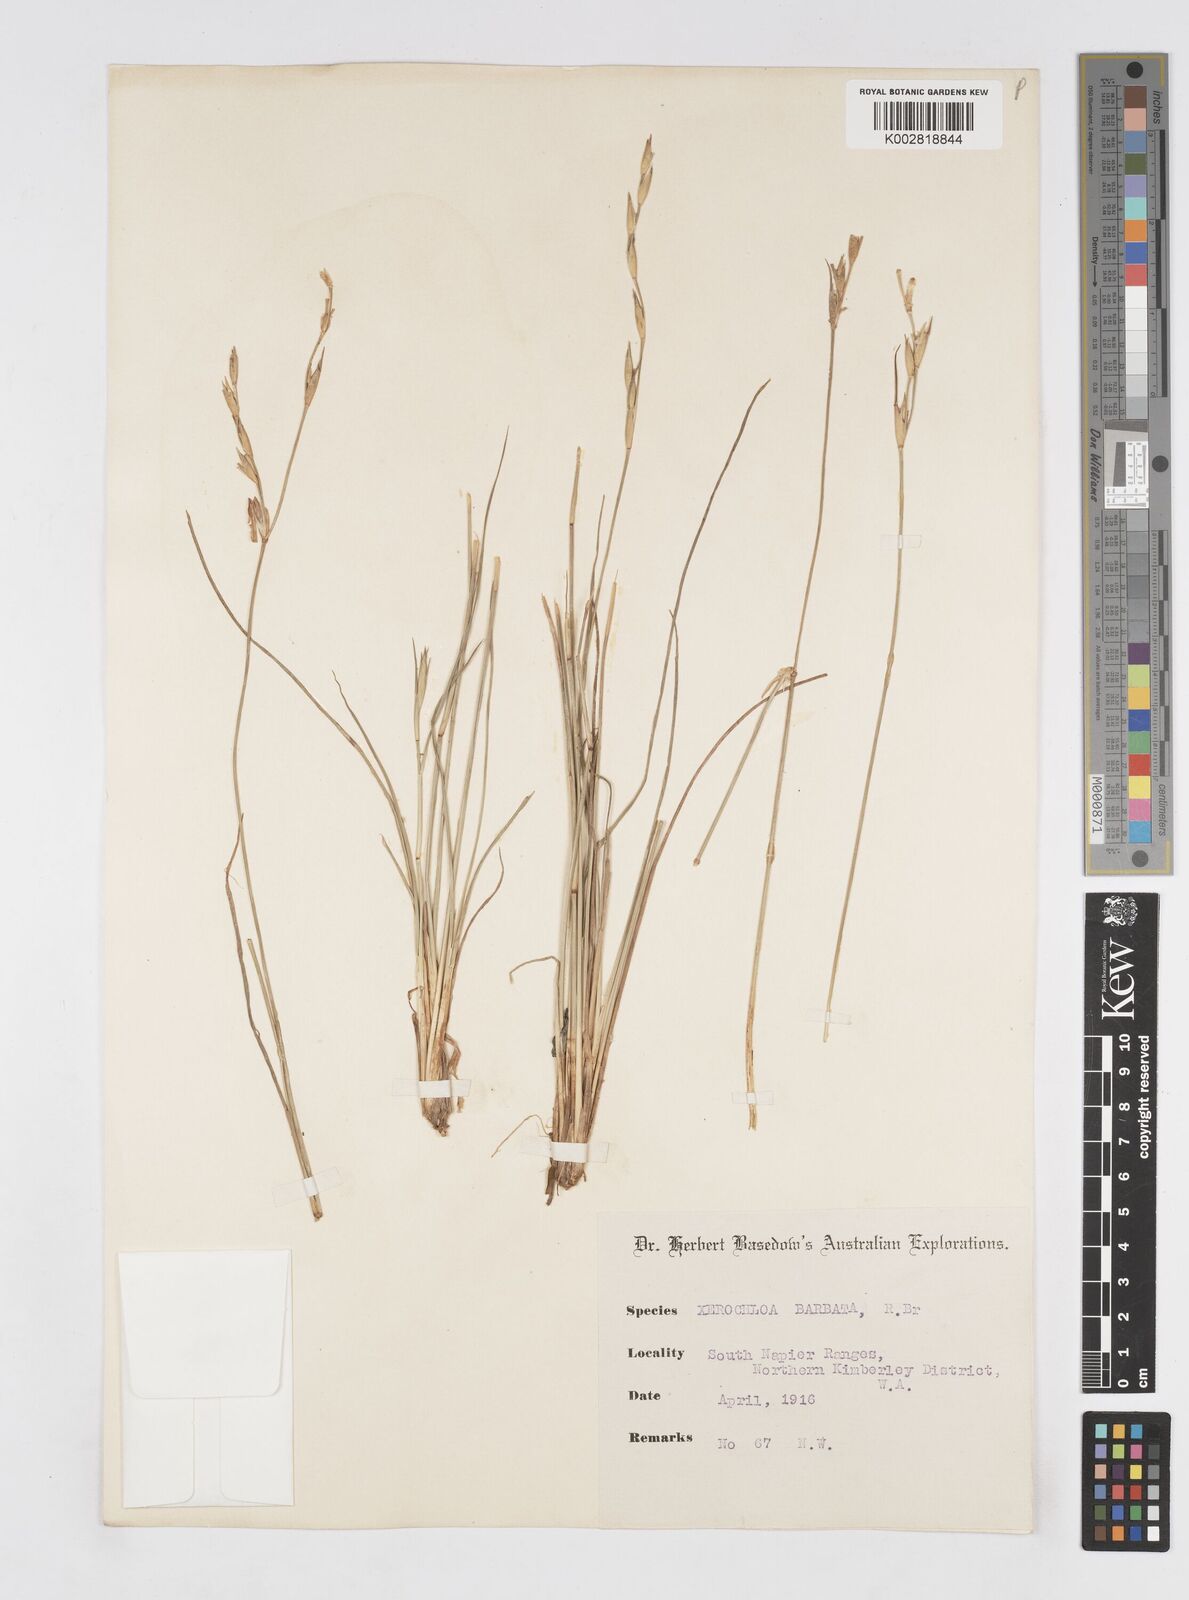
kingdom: Plantae
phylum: Tracheophyta
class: Liliopsida
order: Poales
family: Poaceae
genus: Xerochloa
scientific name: Xerochloa barbata
